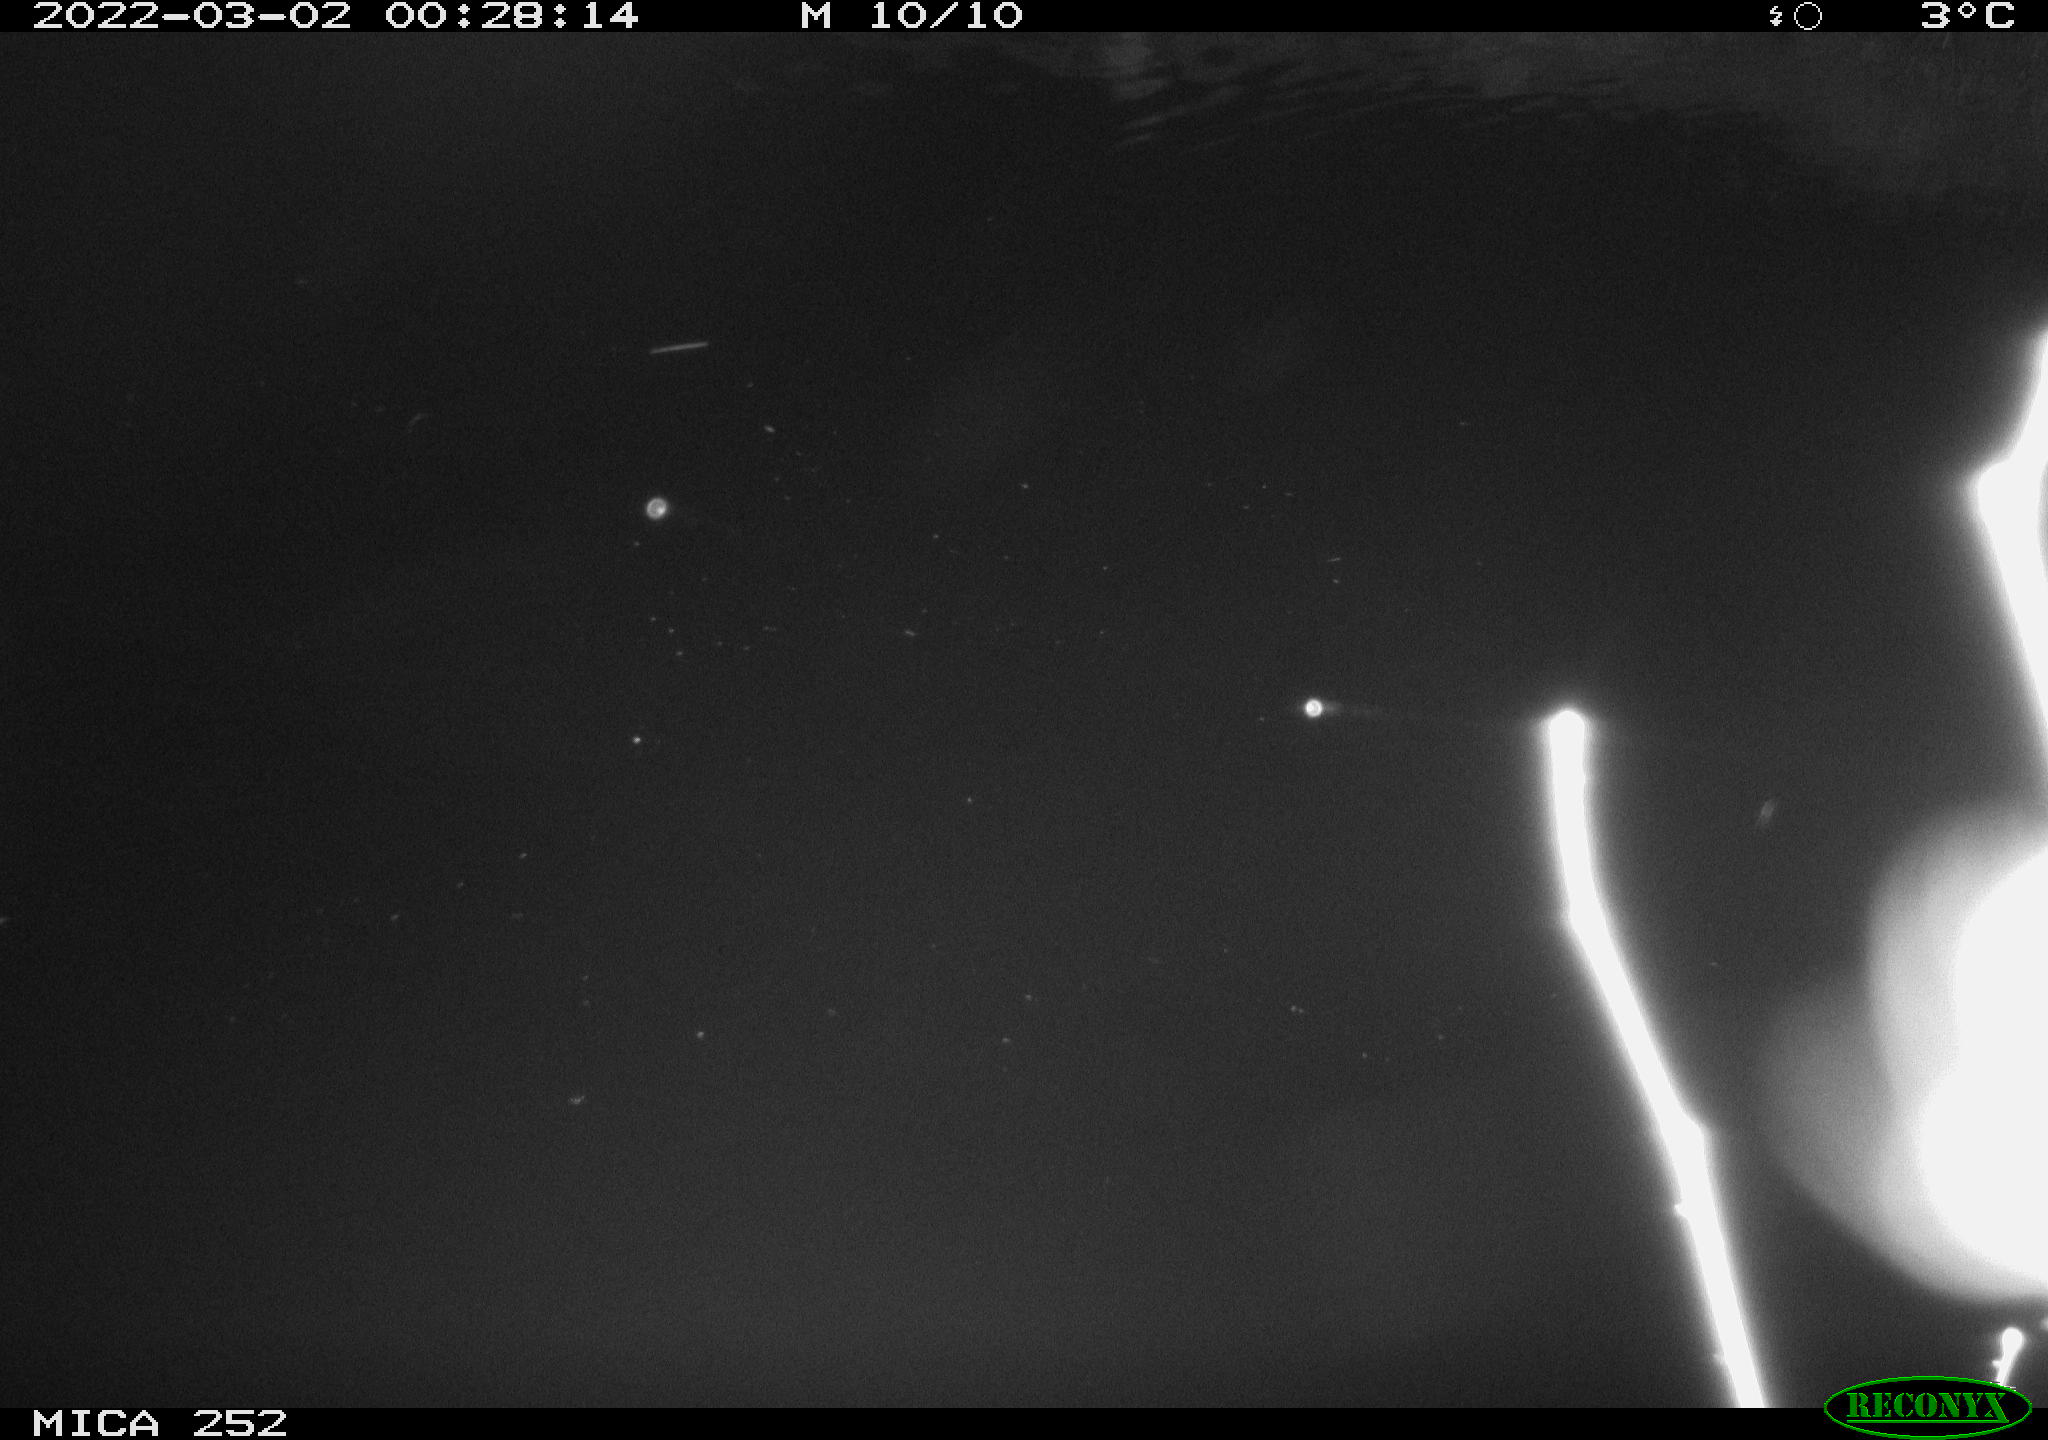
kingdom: Animalia
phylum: Chordata
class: Mammalia
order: Rodentia
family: Castoridae
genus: Castor
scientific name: Castor fiber
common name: Eurasian beaver
